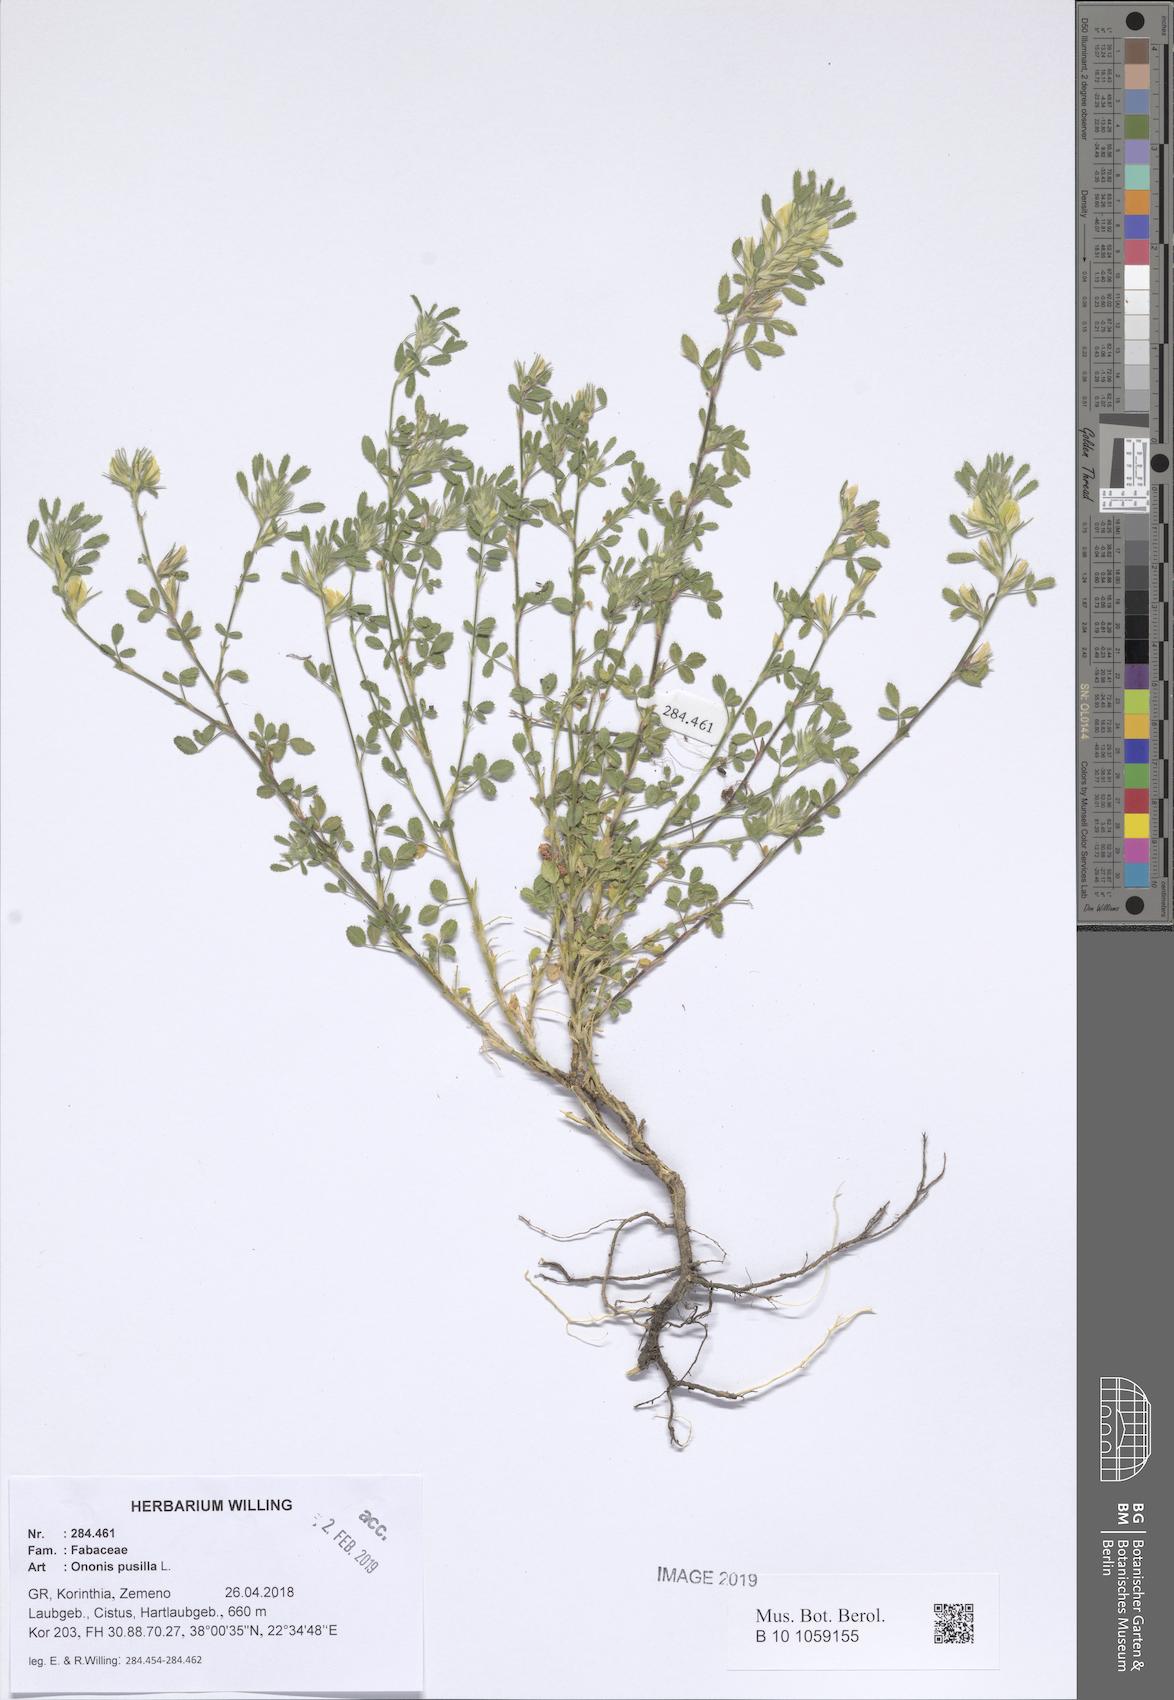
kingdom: Plantae
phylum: Tracheophyta
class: Magnoliopsida
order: Fabales
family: Fabaceae
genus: Ononis
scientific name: Ononis pusilla
